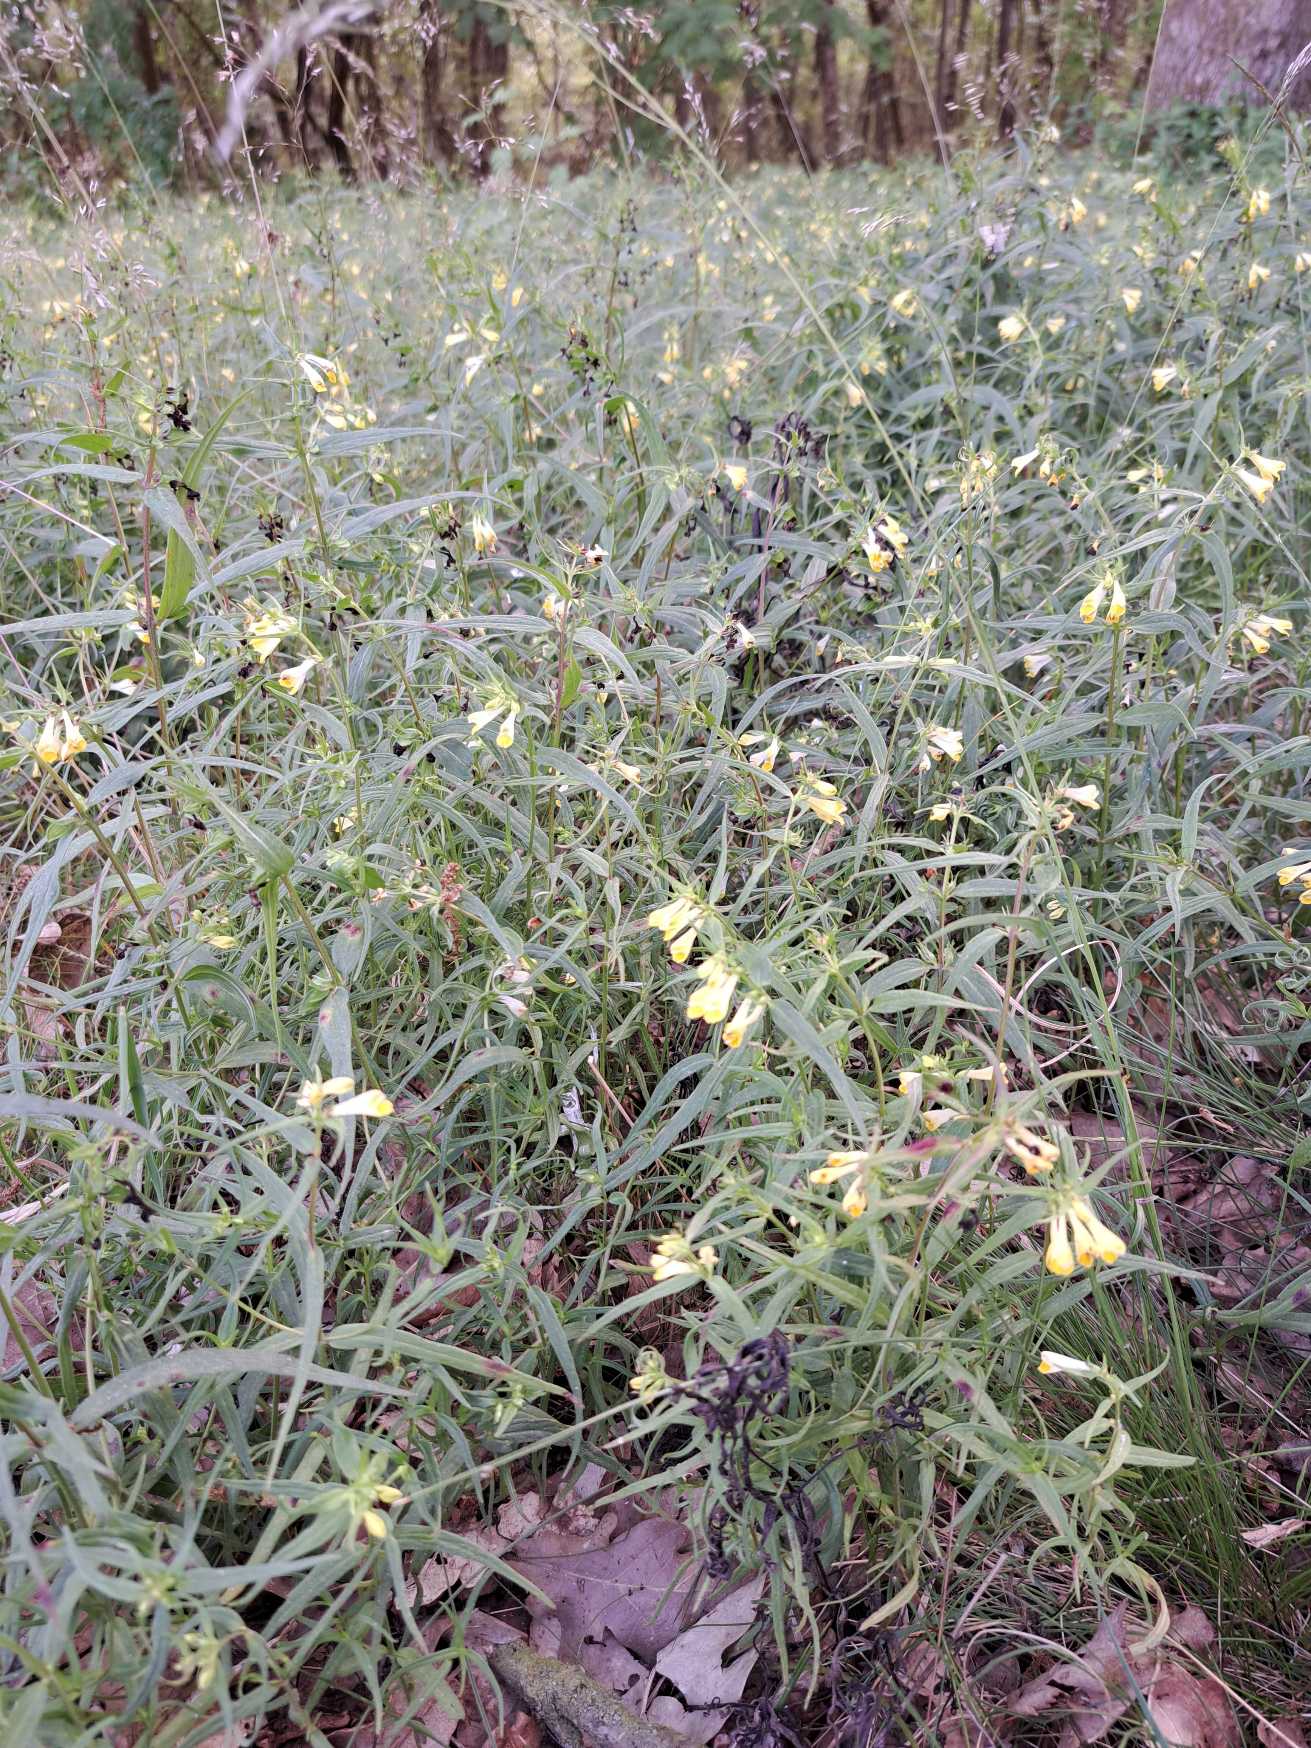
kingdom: Plantae
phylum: Tracheophyta
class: Magnoliopsida
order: Lamiales
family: Orobanchaceae
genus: Melampyrum
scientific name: Melampyrum pratense
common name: Almindelig kohvede
